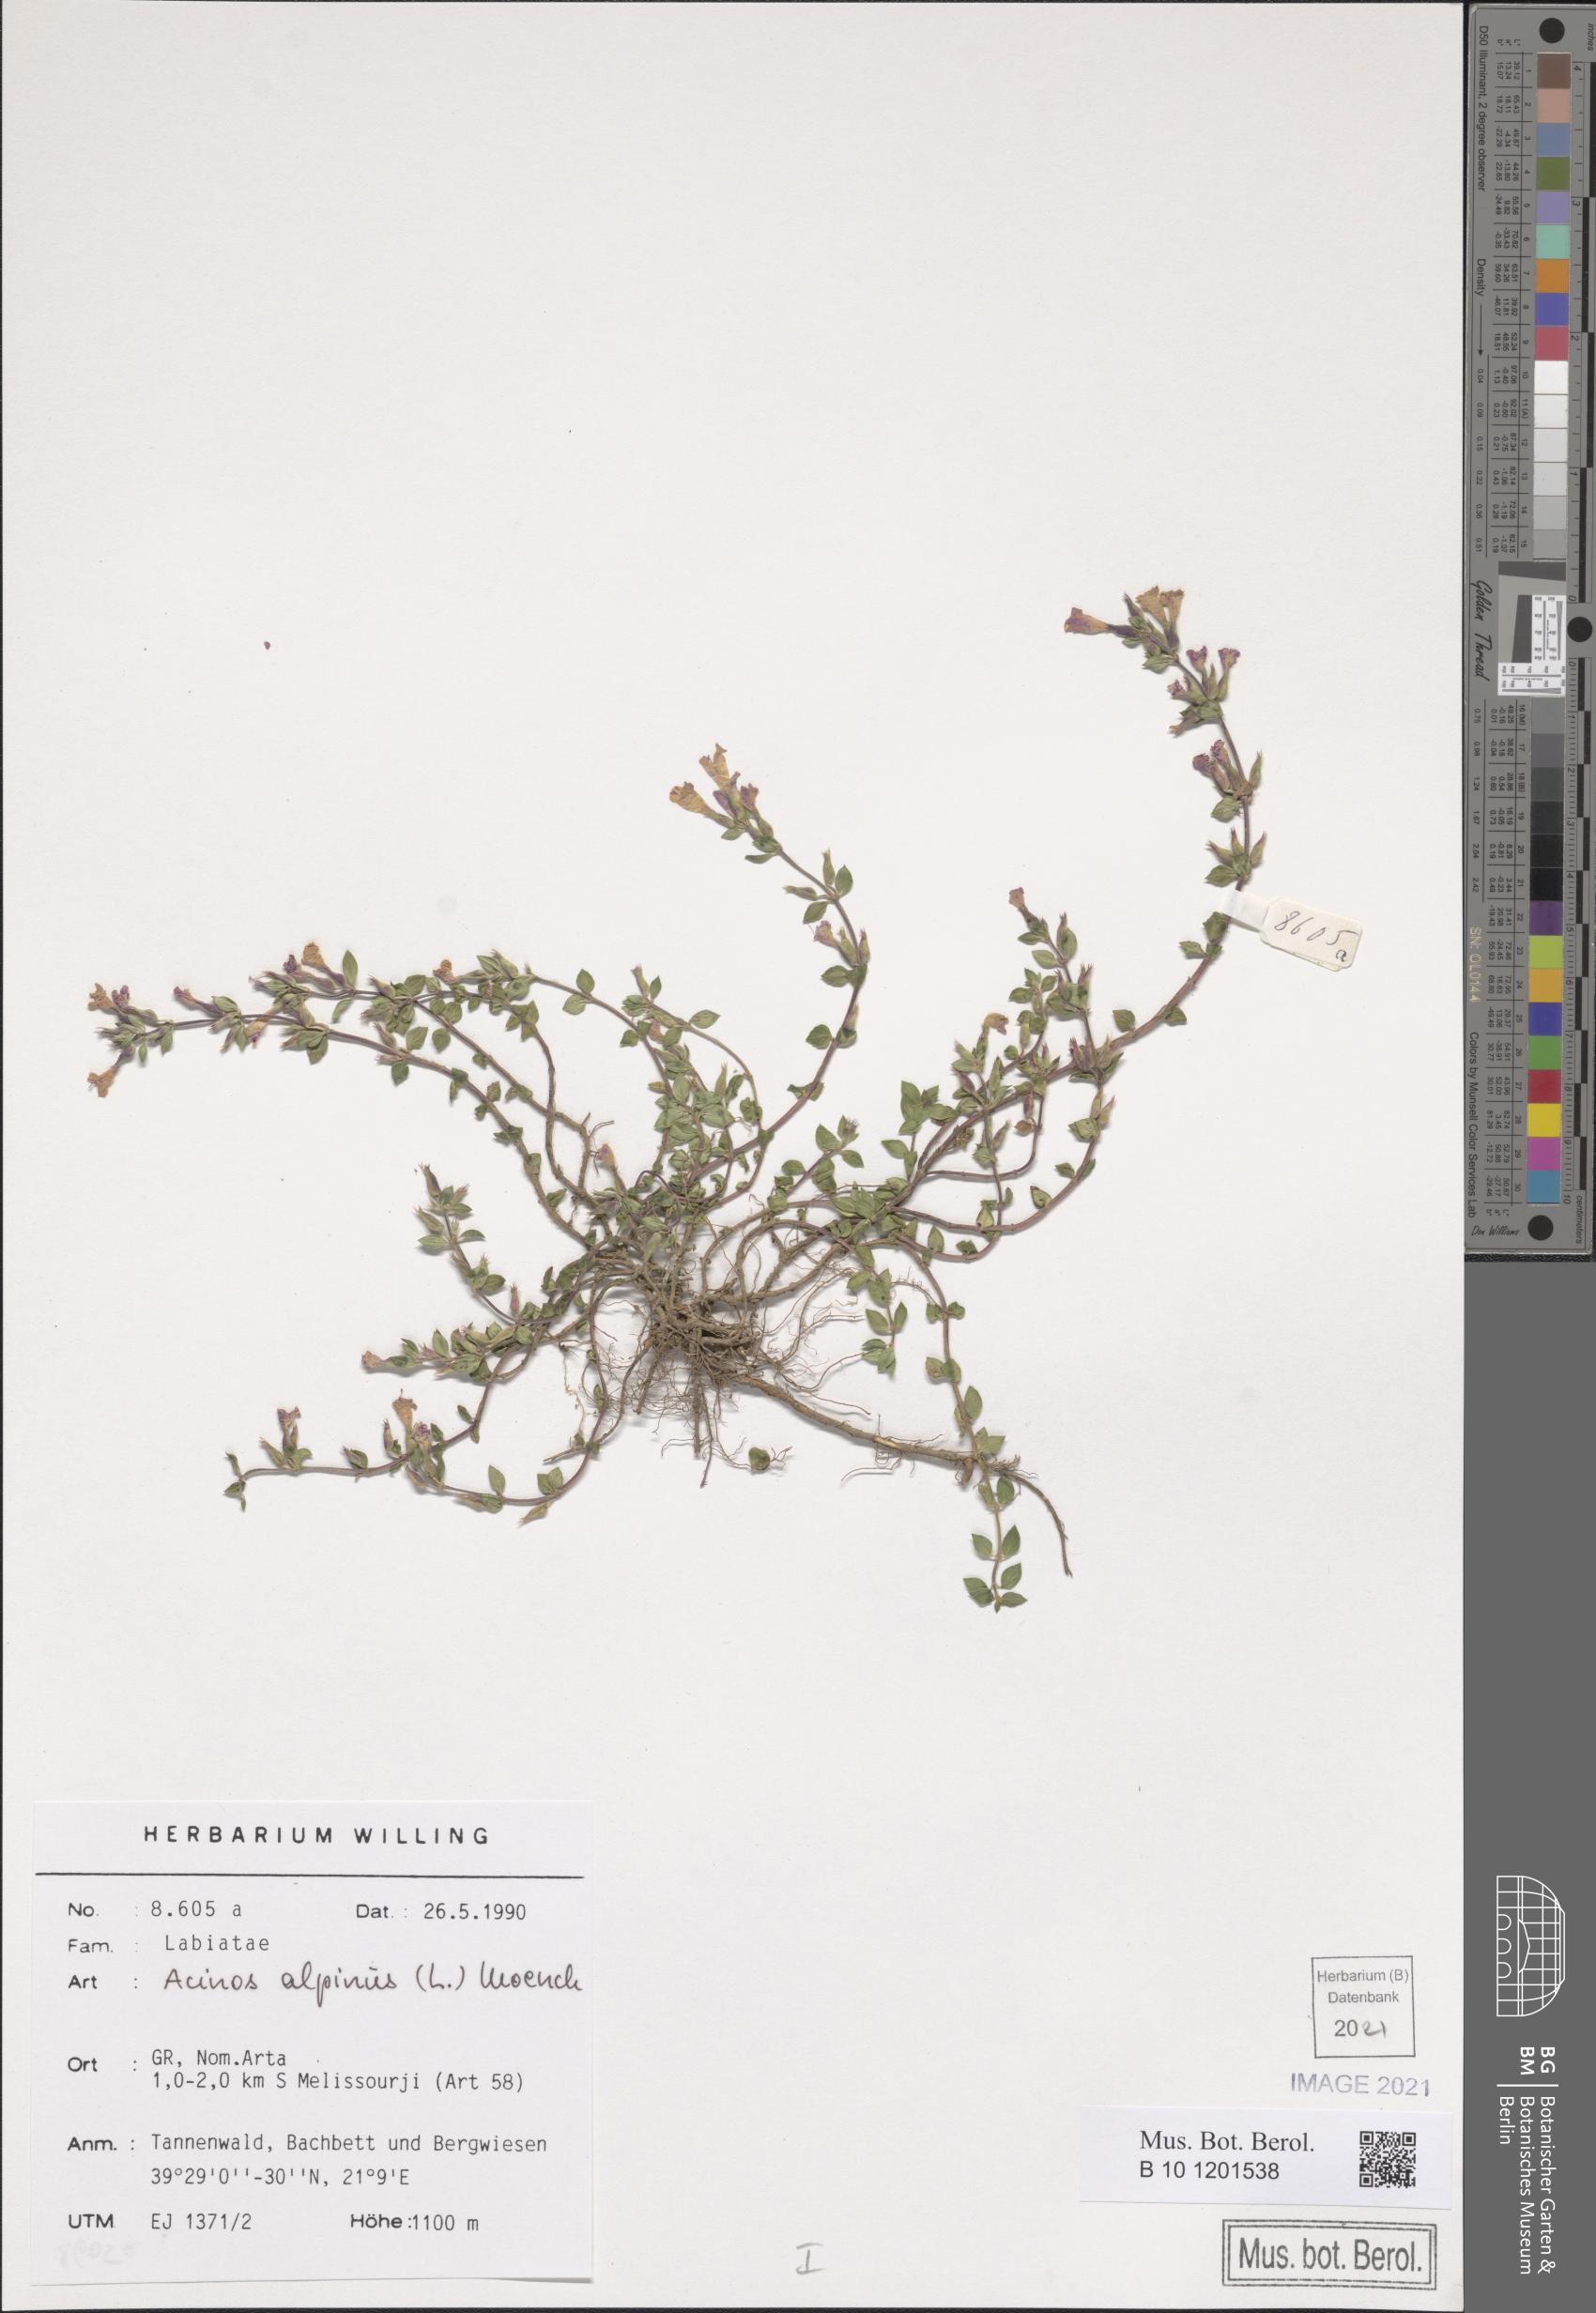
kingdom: Plantae
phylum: Tracheophyta
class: Magnoliopsida
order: Lamiales
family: Lamiaceae
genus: Clinopodium
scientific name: Clinopodium alpinum
